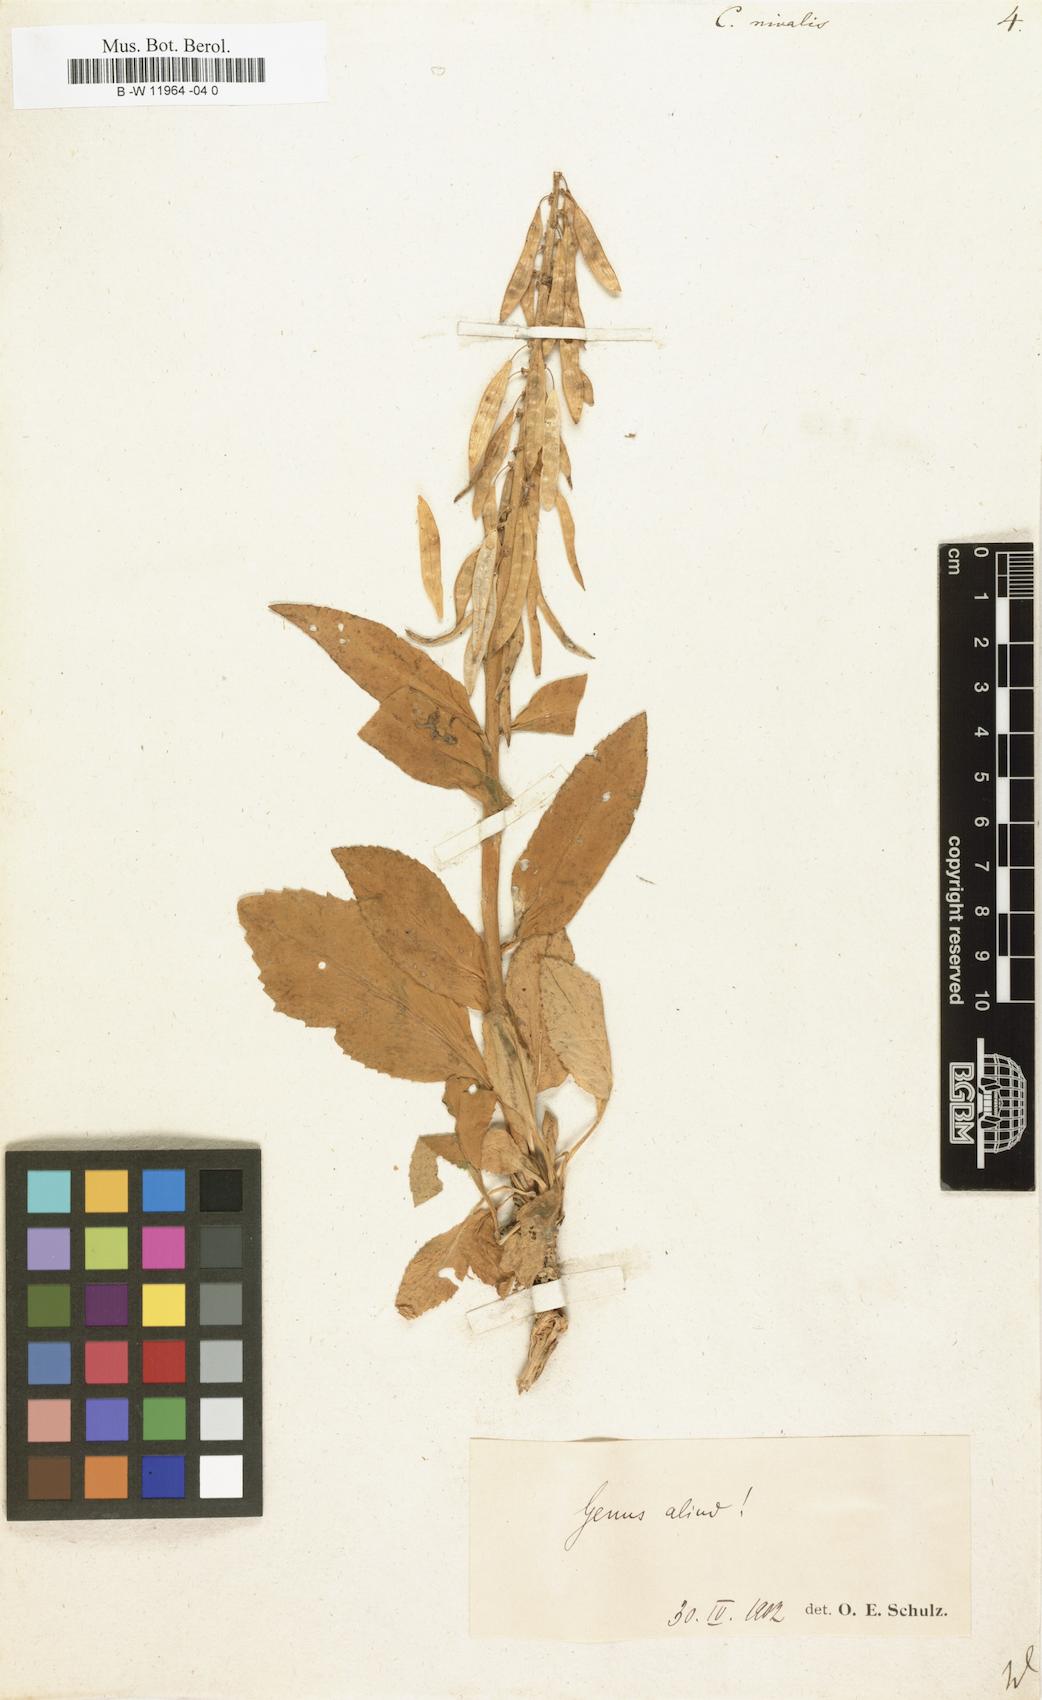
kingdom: Plantae
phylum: Tracheophyta
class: Magnoliopsida
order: Brassicales
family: Brassicaceae
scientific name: Brassicaceae
